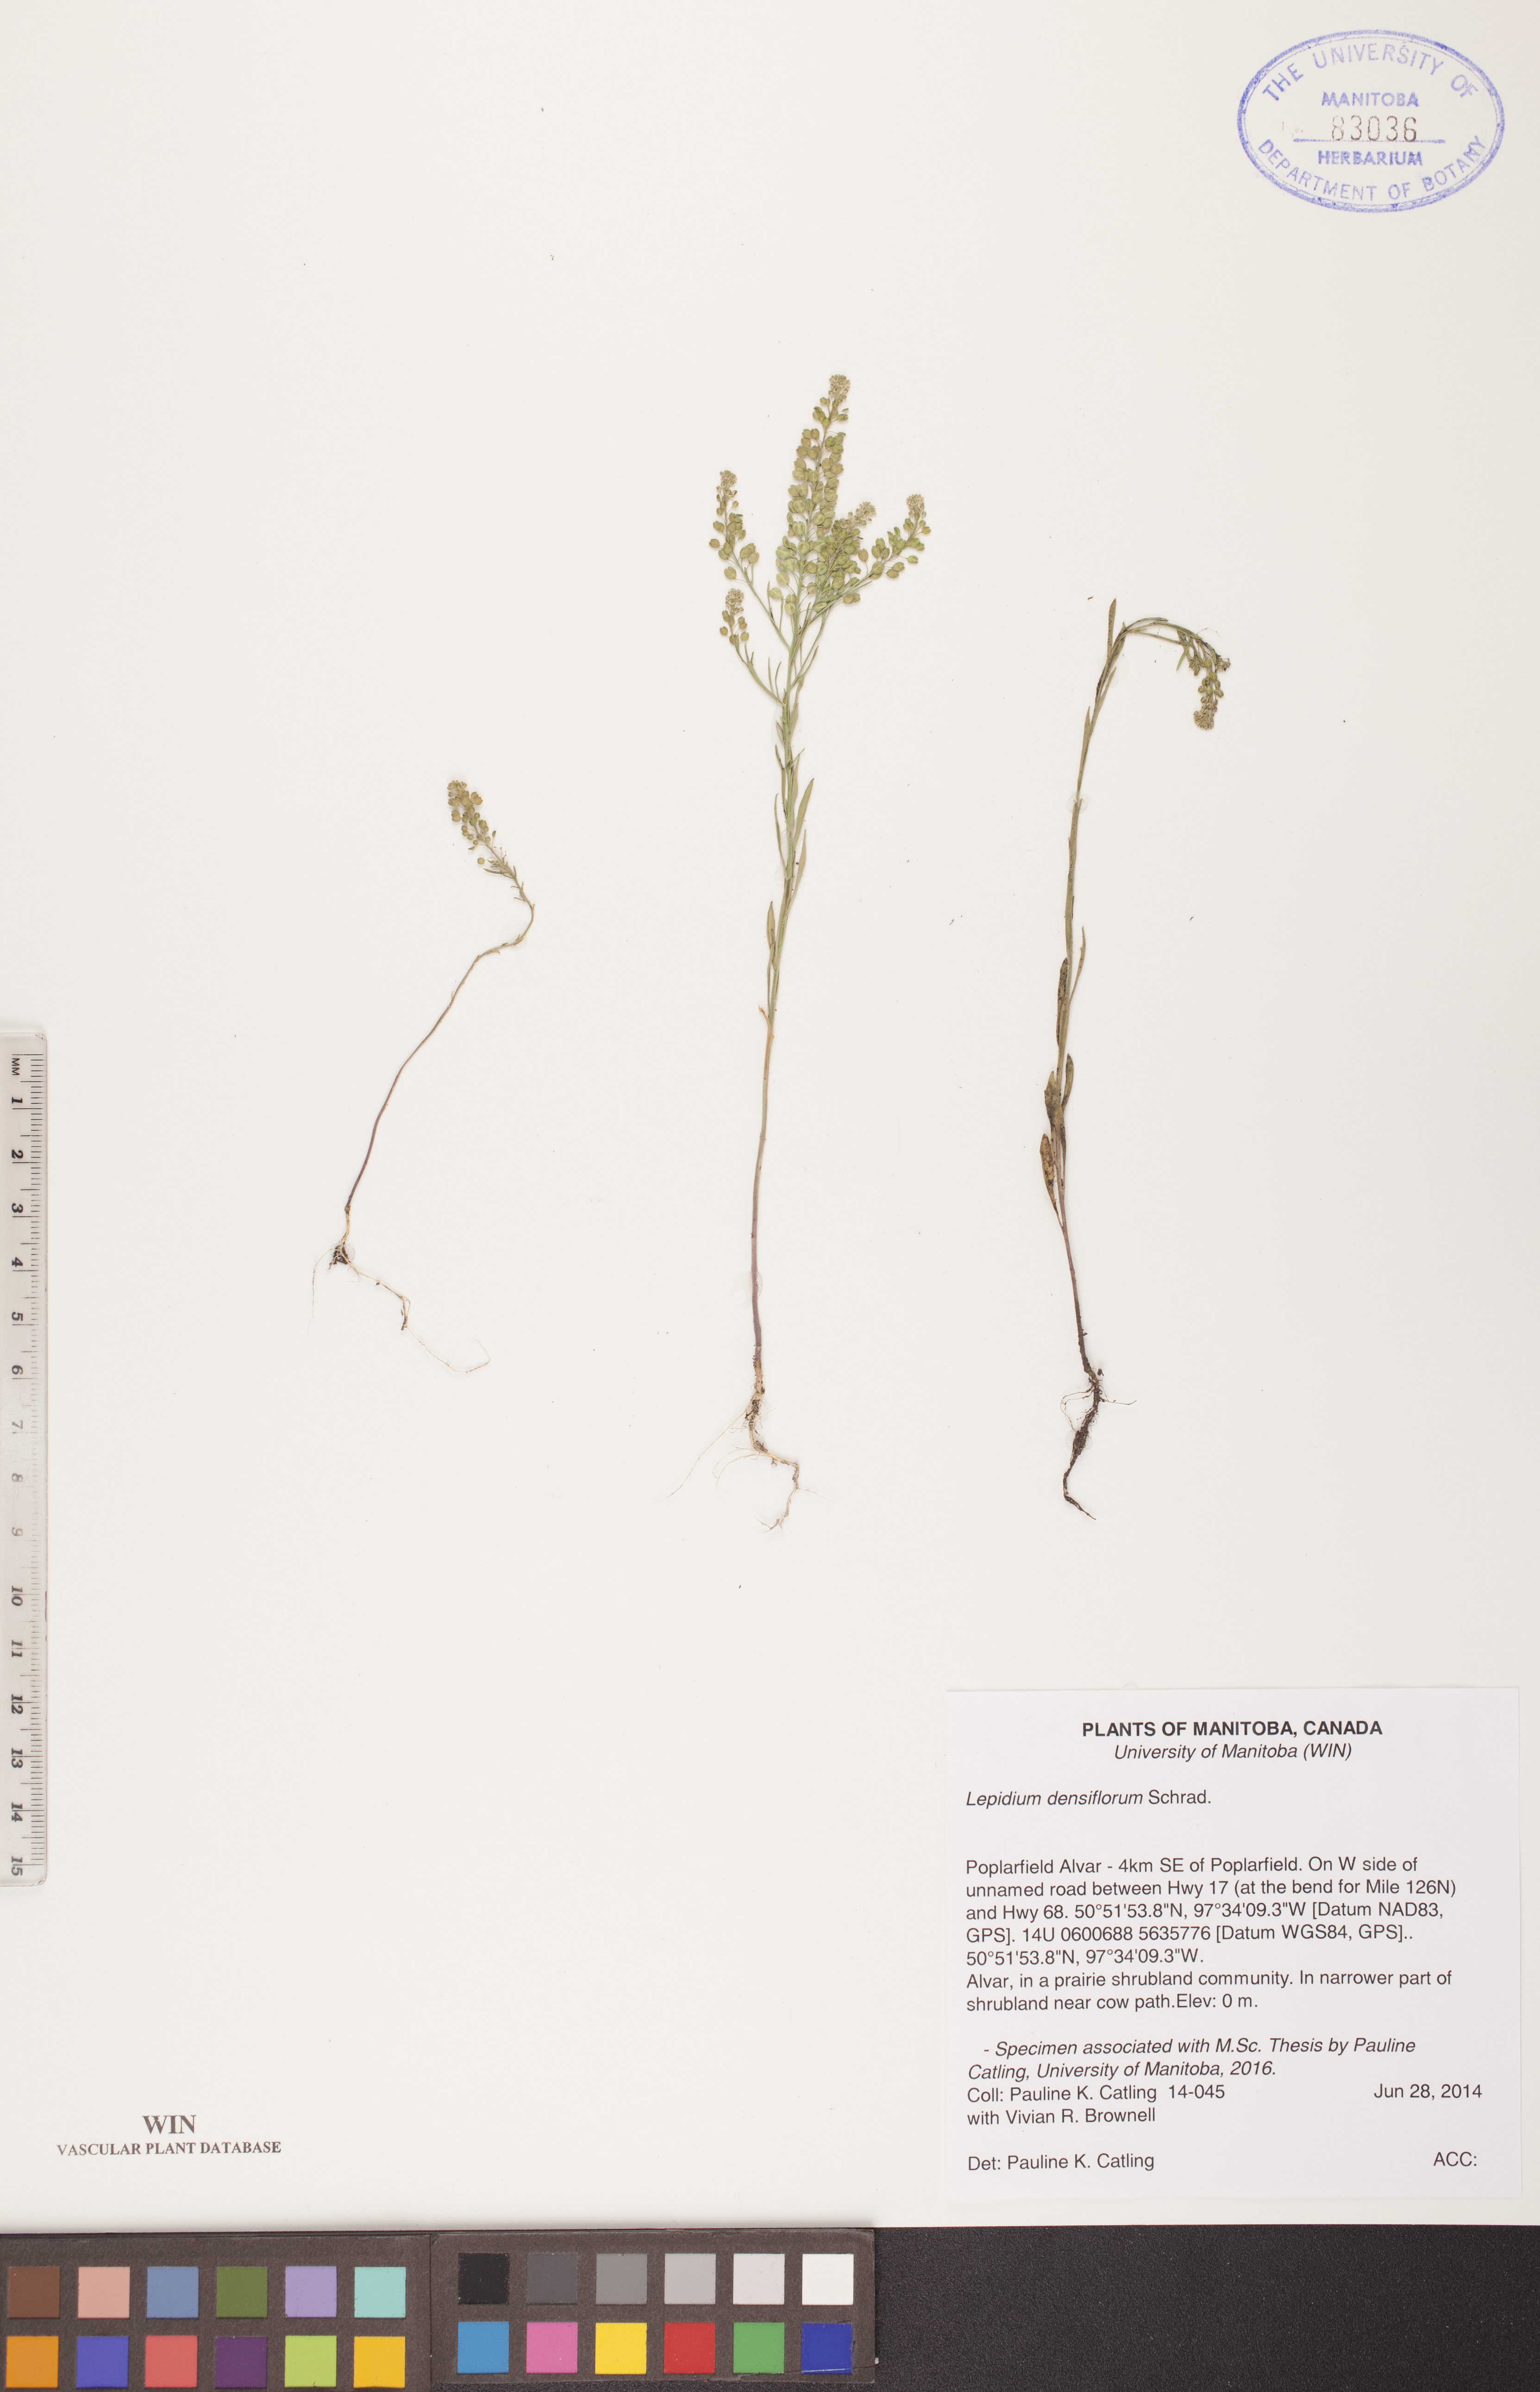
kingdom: Plantae
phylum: Tracheophyta
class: Magnoliopsida
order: Brassicales
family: Brassicaceae
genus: Lepidium
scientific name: Lepidium densiflorum
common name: Miner's pepperwort
